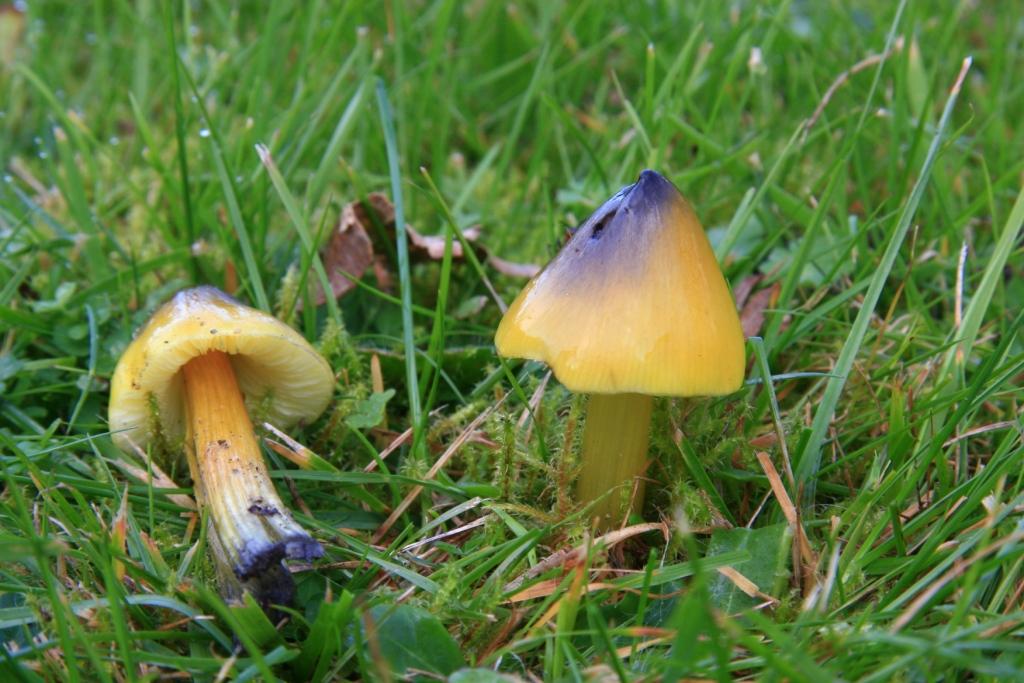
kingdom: Fungi
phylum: Basidiomycota
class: Agaricomycetes
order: Agaricales
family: Hygrophoraceae
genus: Hygrocybe
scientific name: Hygrocybe conica
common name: kegle-vokshat
